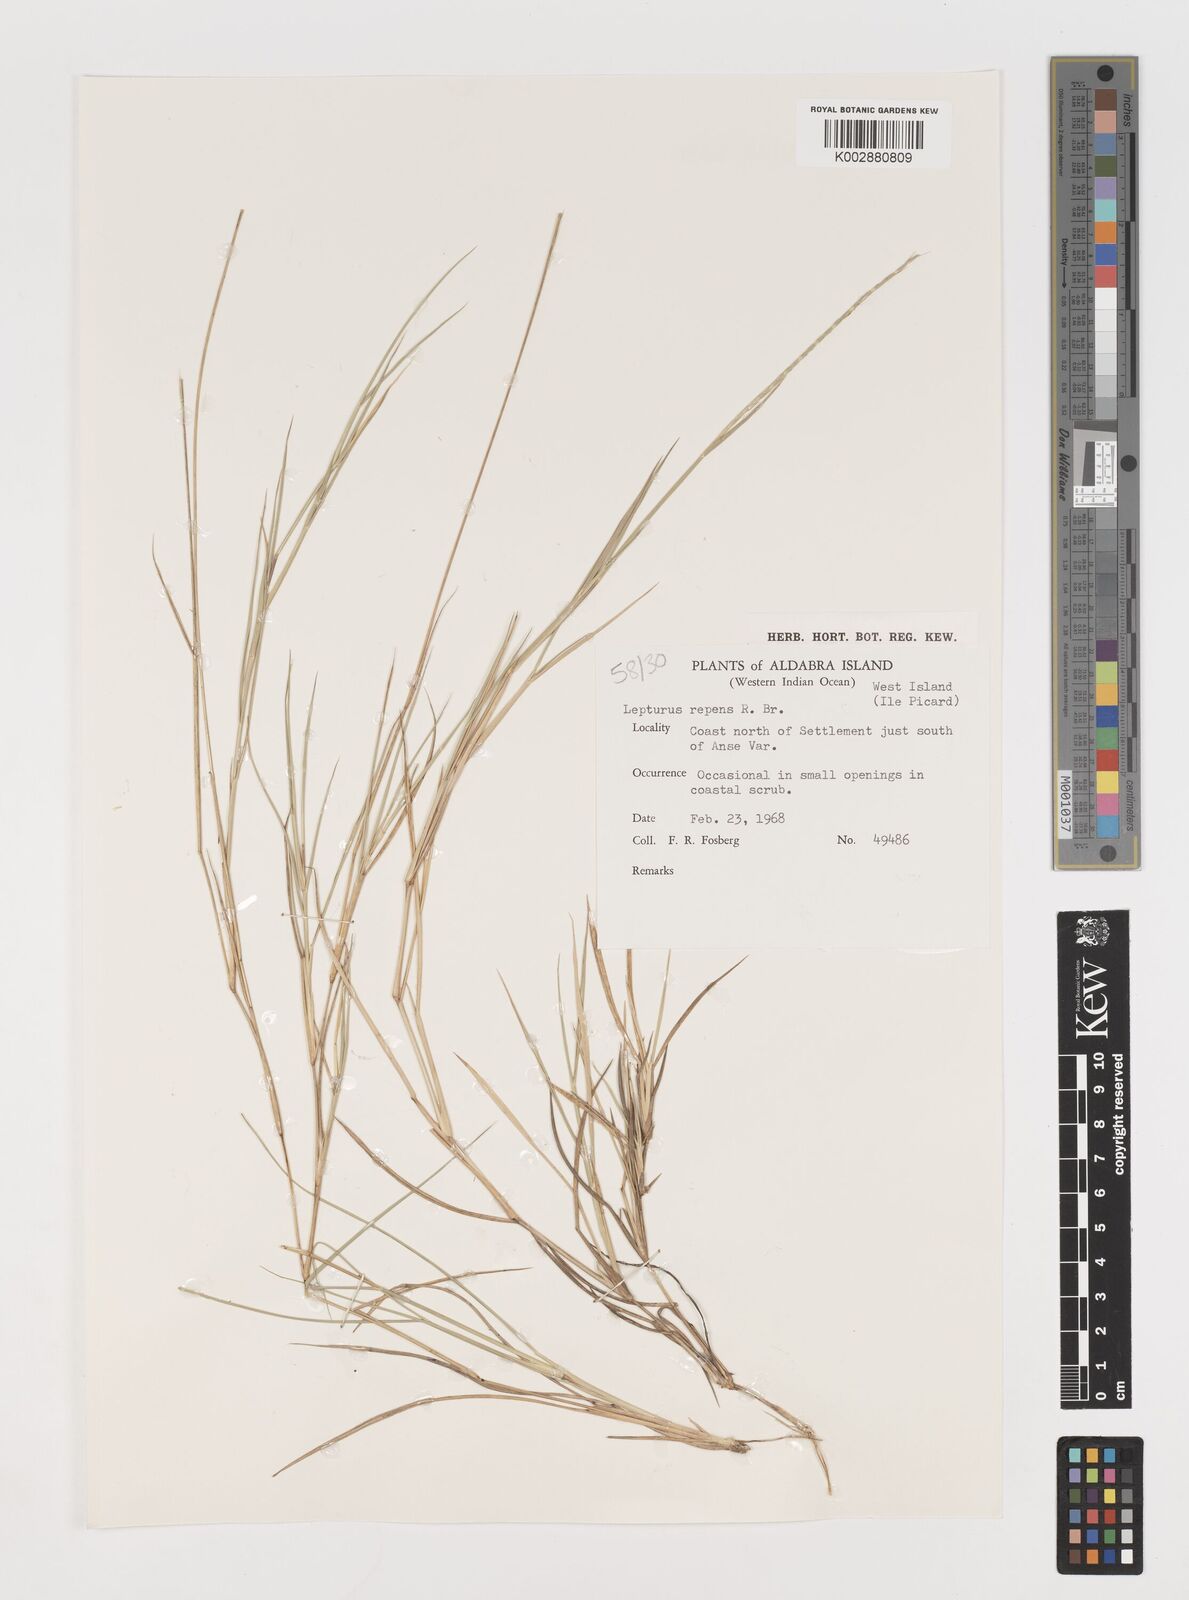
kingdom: Plantae
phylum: Tracheophyta
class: Liliopsida
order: Poales
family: Poaceae
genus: Lepturus
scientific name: Lepturus repens
